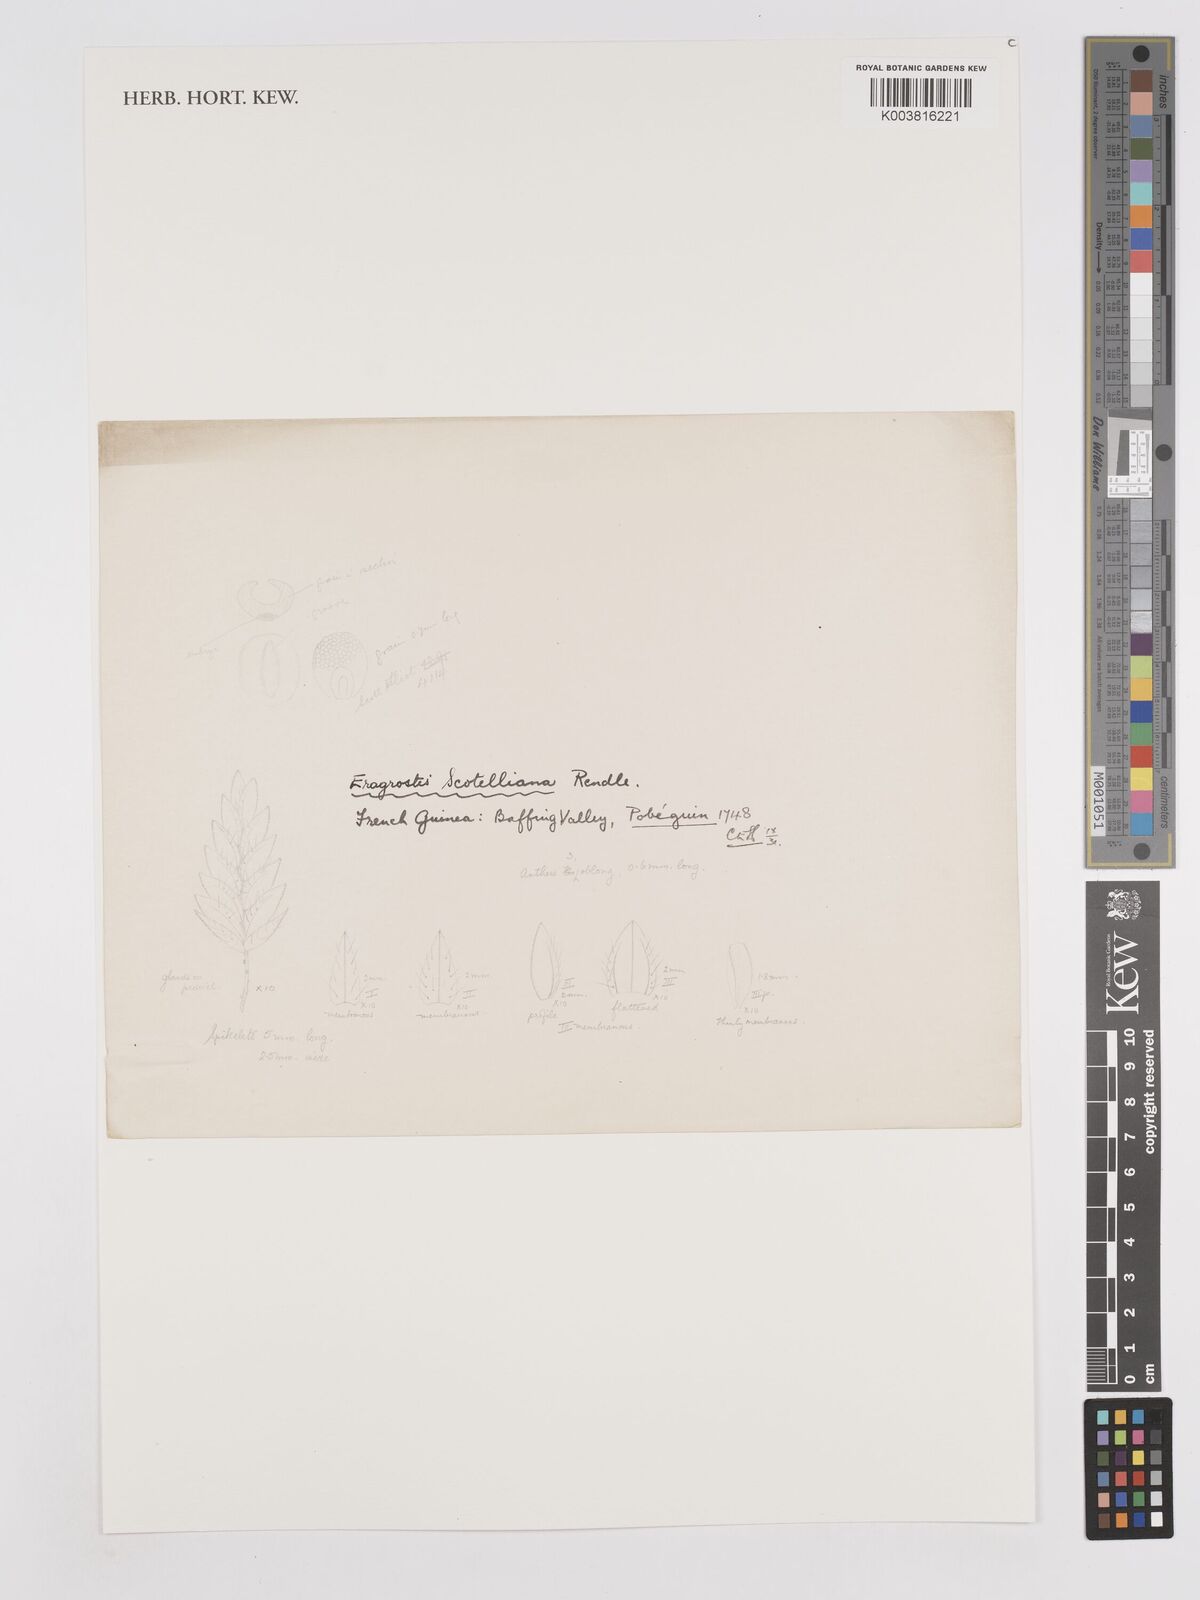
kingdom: Plantae
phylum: Tracheophyta
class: Liliopsida
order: Poales
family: Poaceae
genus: Eragrostis
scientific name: Eragrostis scotelliana
